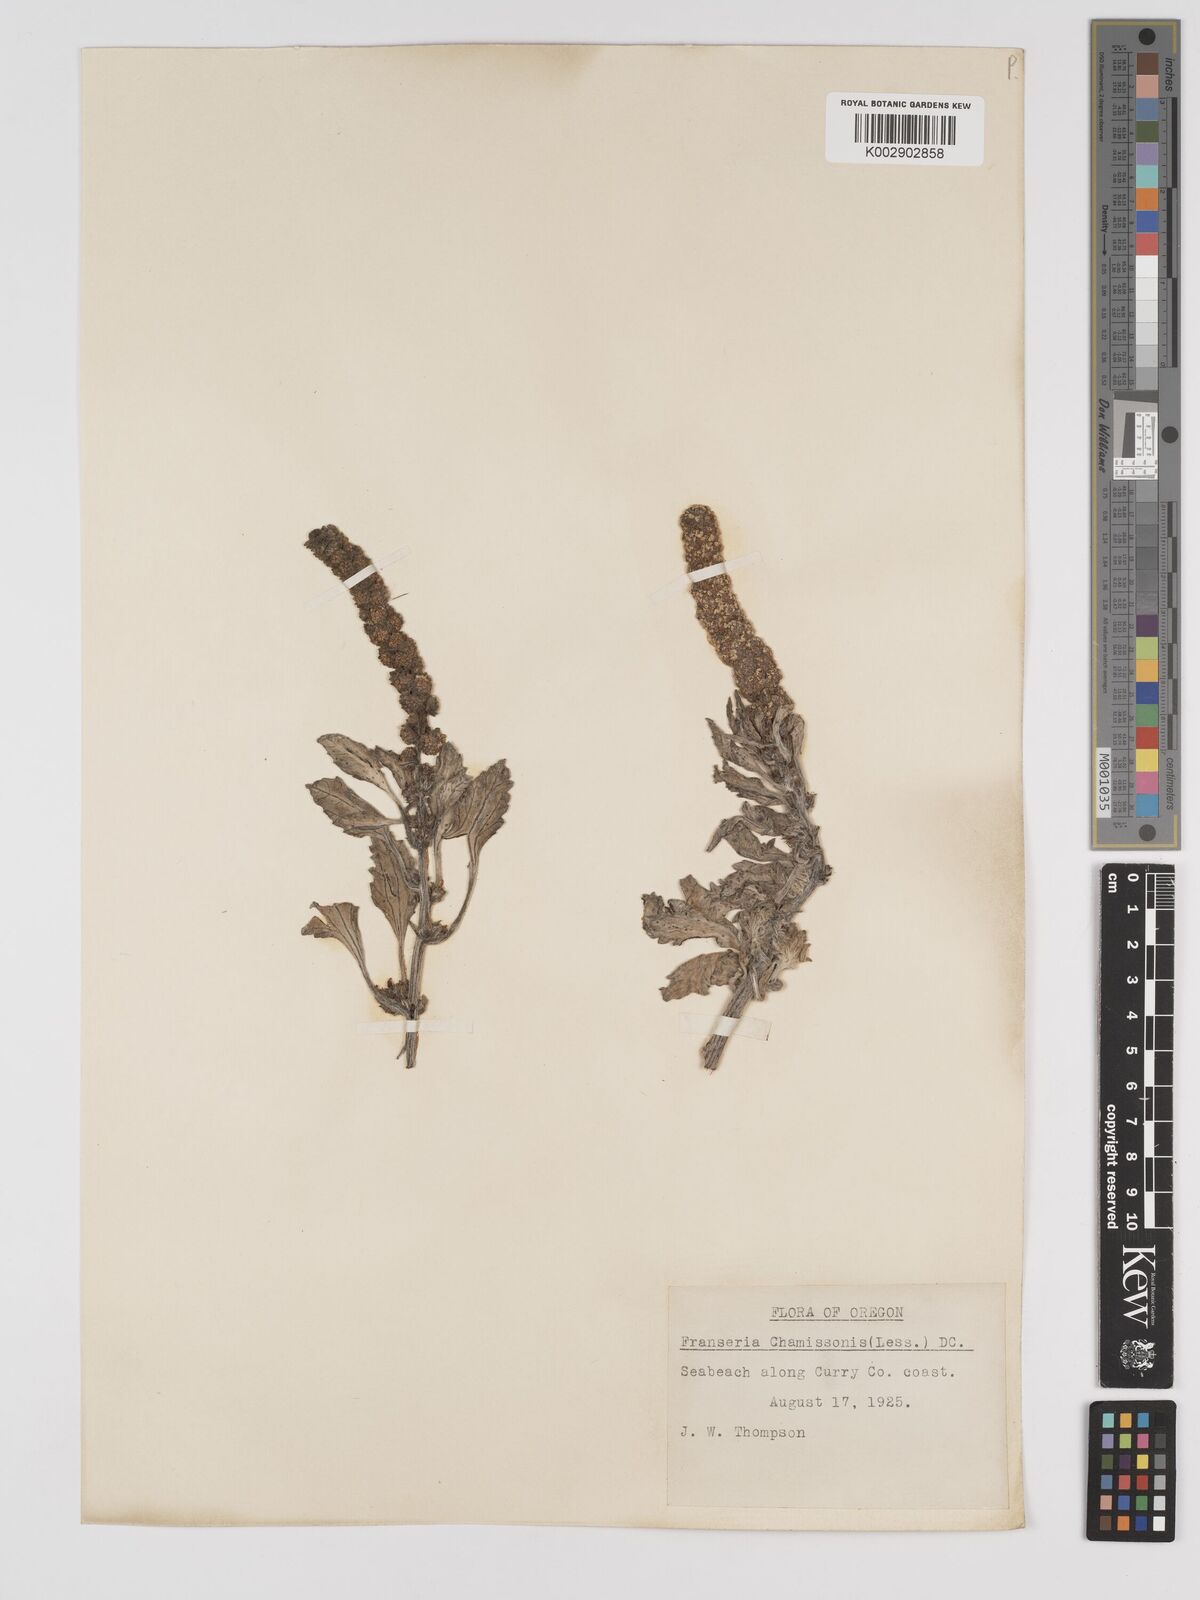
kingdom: Plantae
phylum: Tracheophyta
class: Magnoliopsida
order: Asterales
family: Asteraceae
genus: Ambrosia
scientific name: Ambrosia chamissonis
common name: Beachbur
